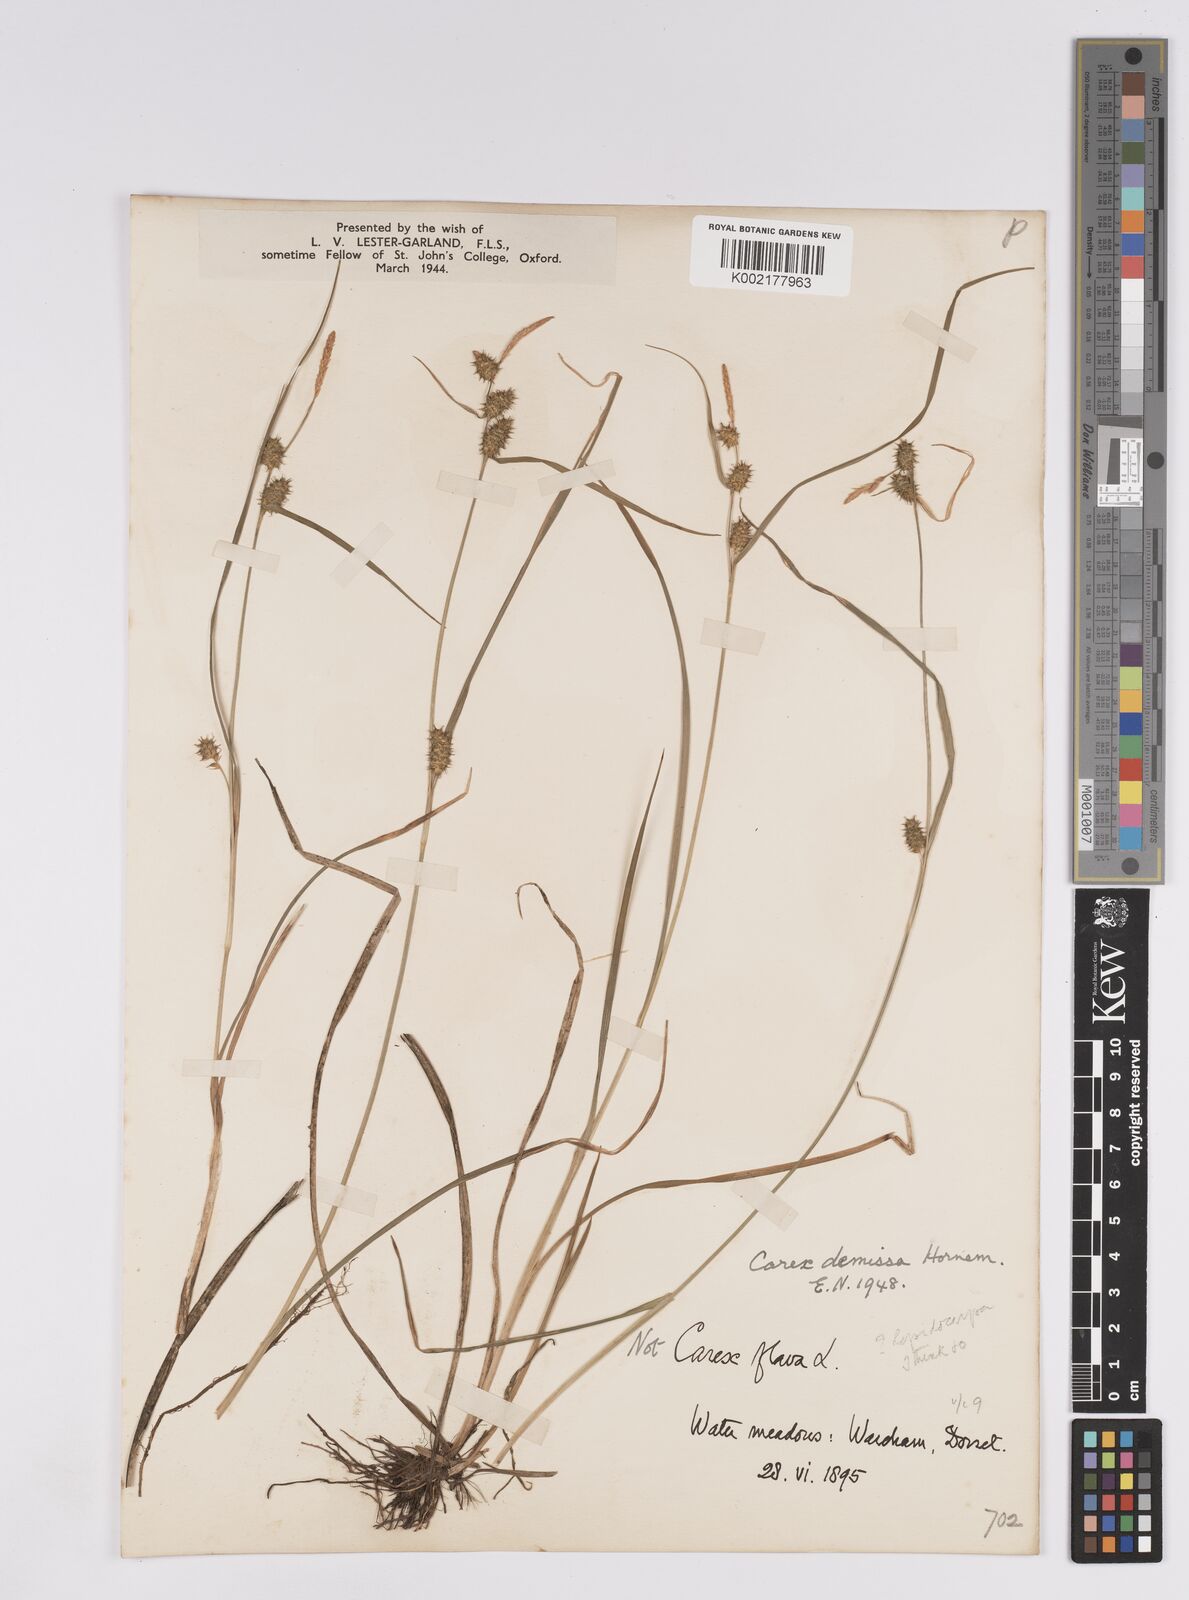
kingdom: Plantae
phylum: Tracheophyta
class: Liliopsida
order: Poales
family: Cyperaceae
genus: Carex
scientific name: Carex demissa
